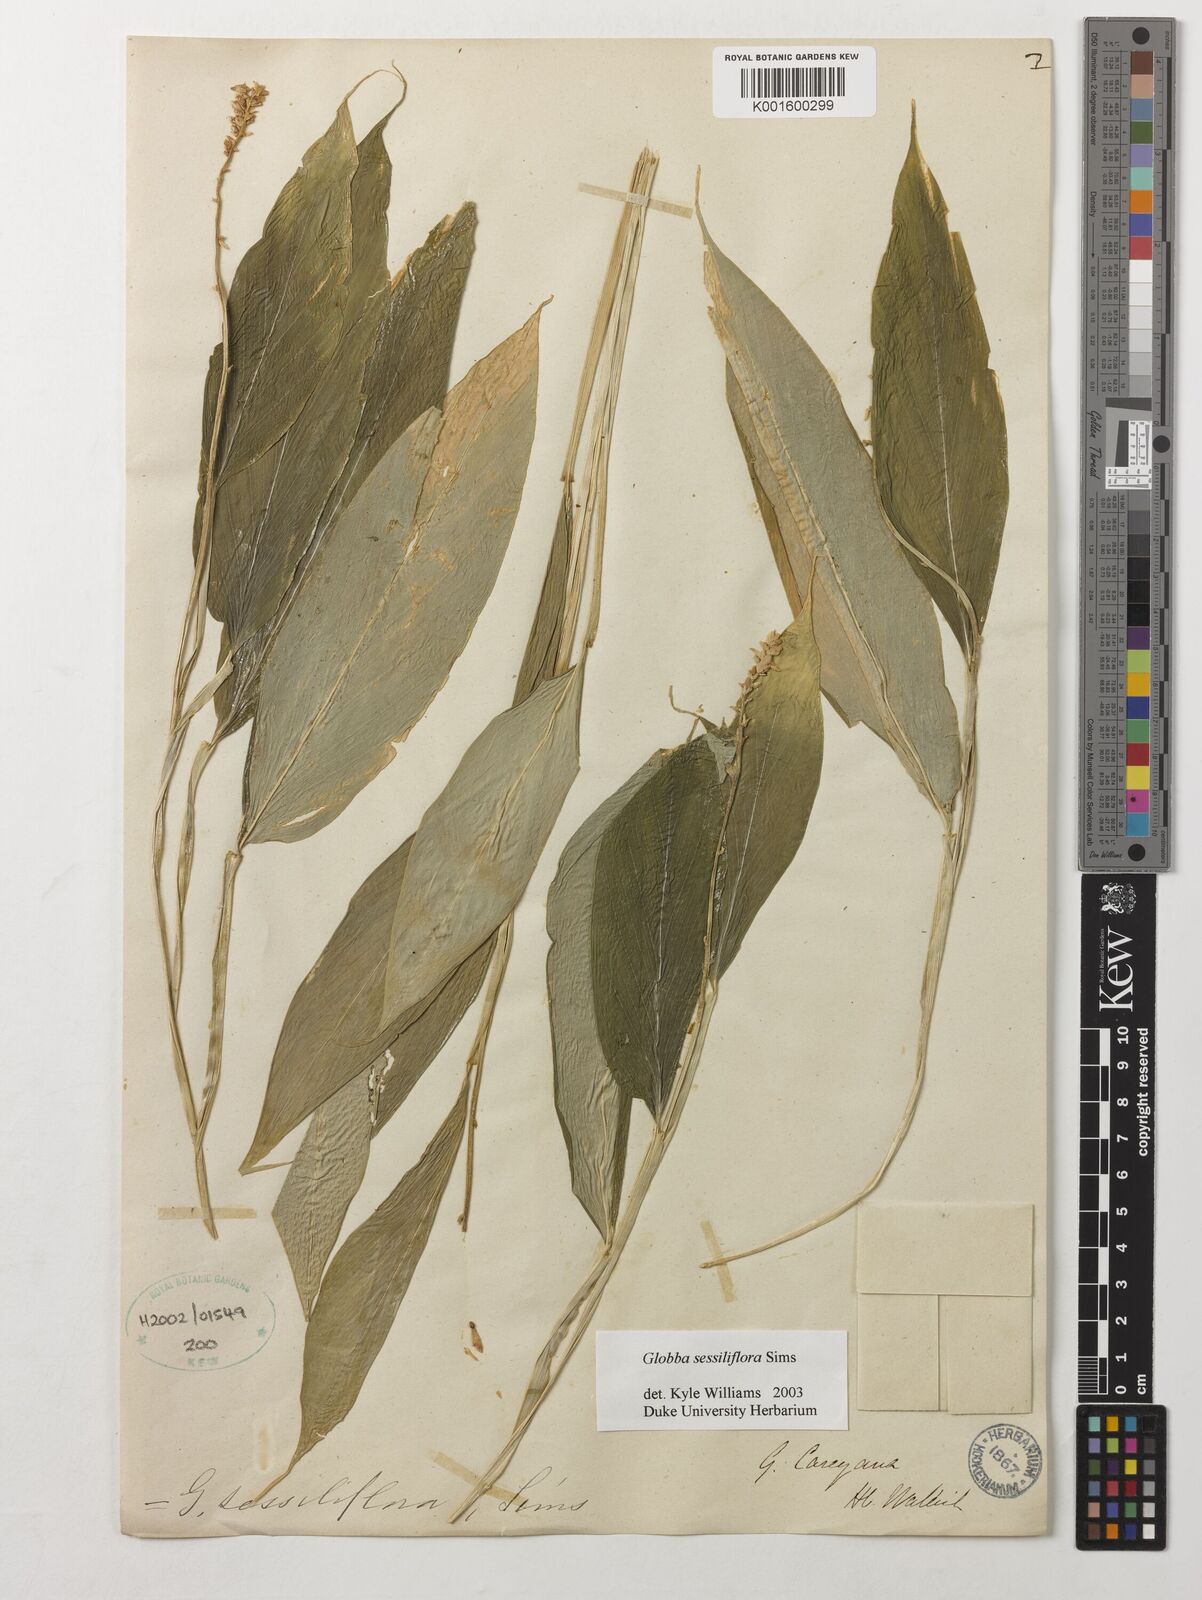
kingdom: Plantae
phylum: Tracheophyta
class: Liliopsida
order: Zingiberales
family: Zingiberaceae
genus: Globba
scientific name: Globba sessiliflora
